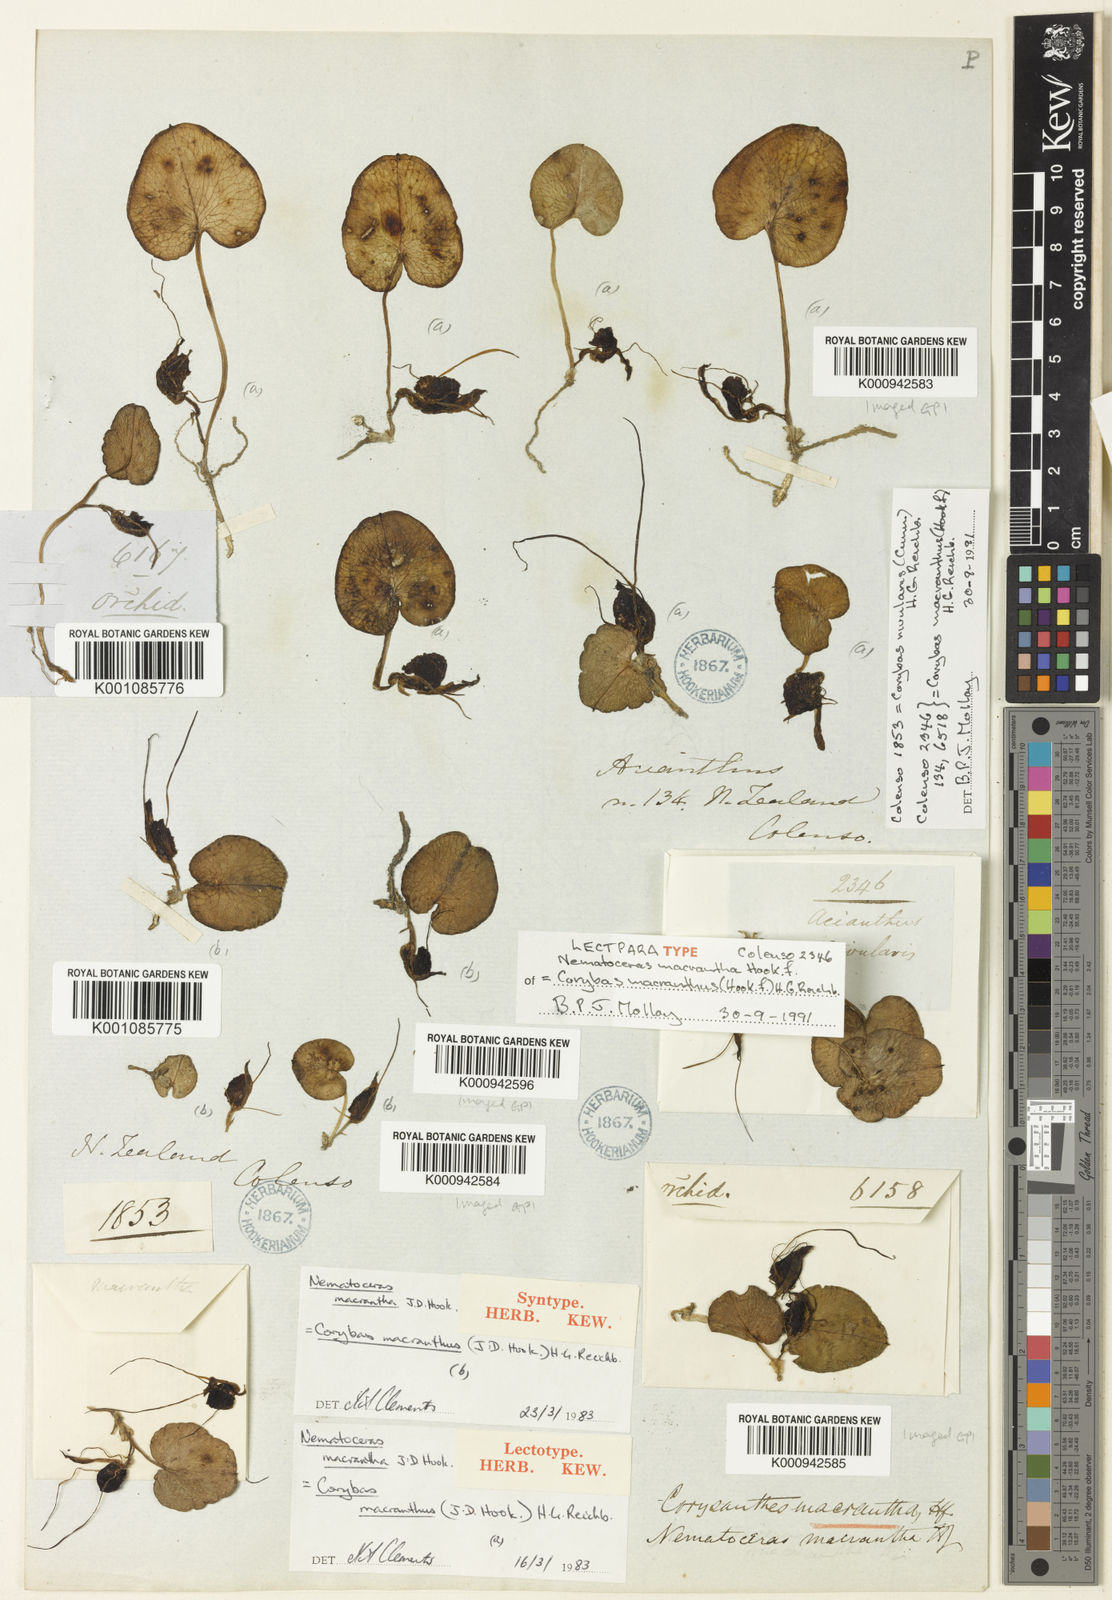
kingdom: Plantae
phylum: Tracheophyta
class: Liliopsida
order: Asparagales
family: Orchidaceae
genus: Corybas
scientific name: Corybas macranthus
